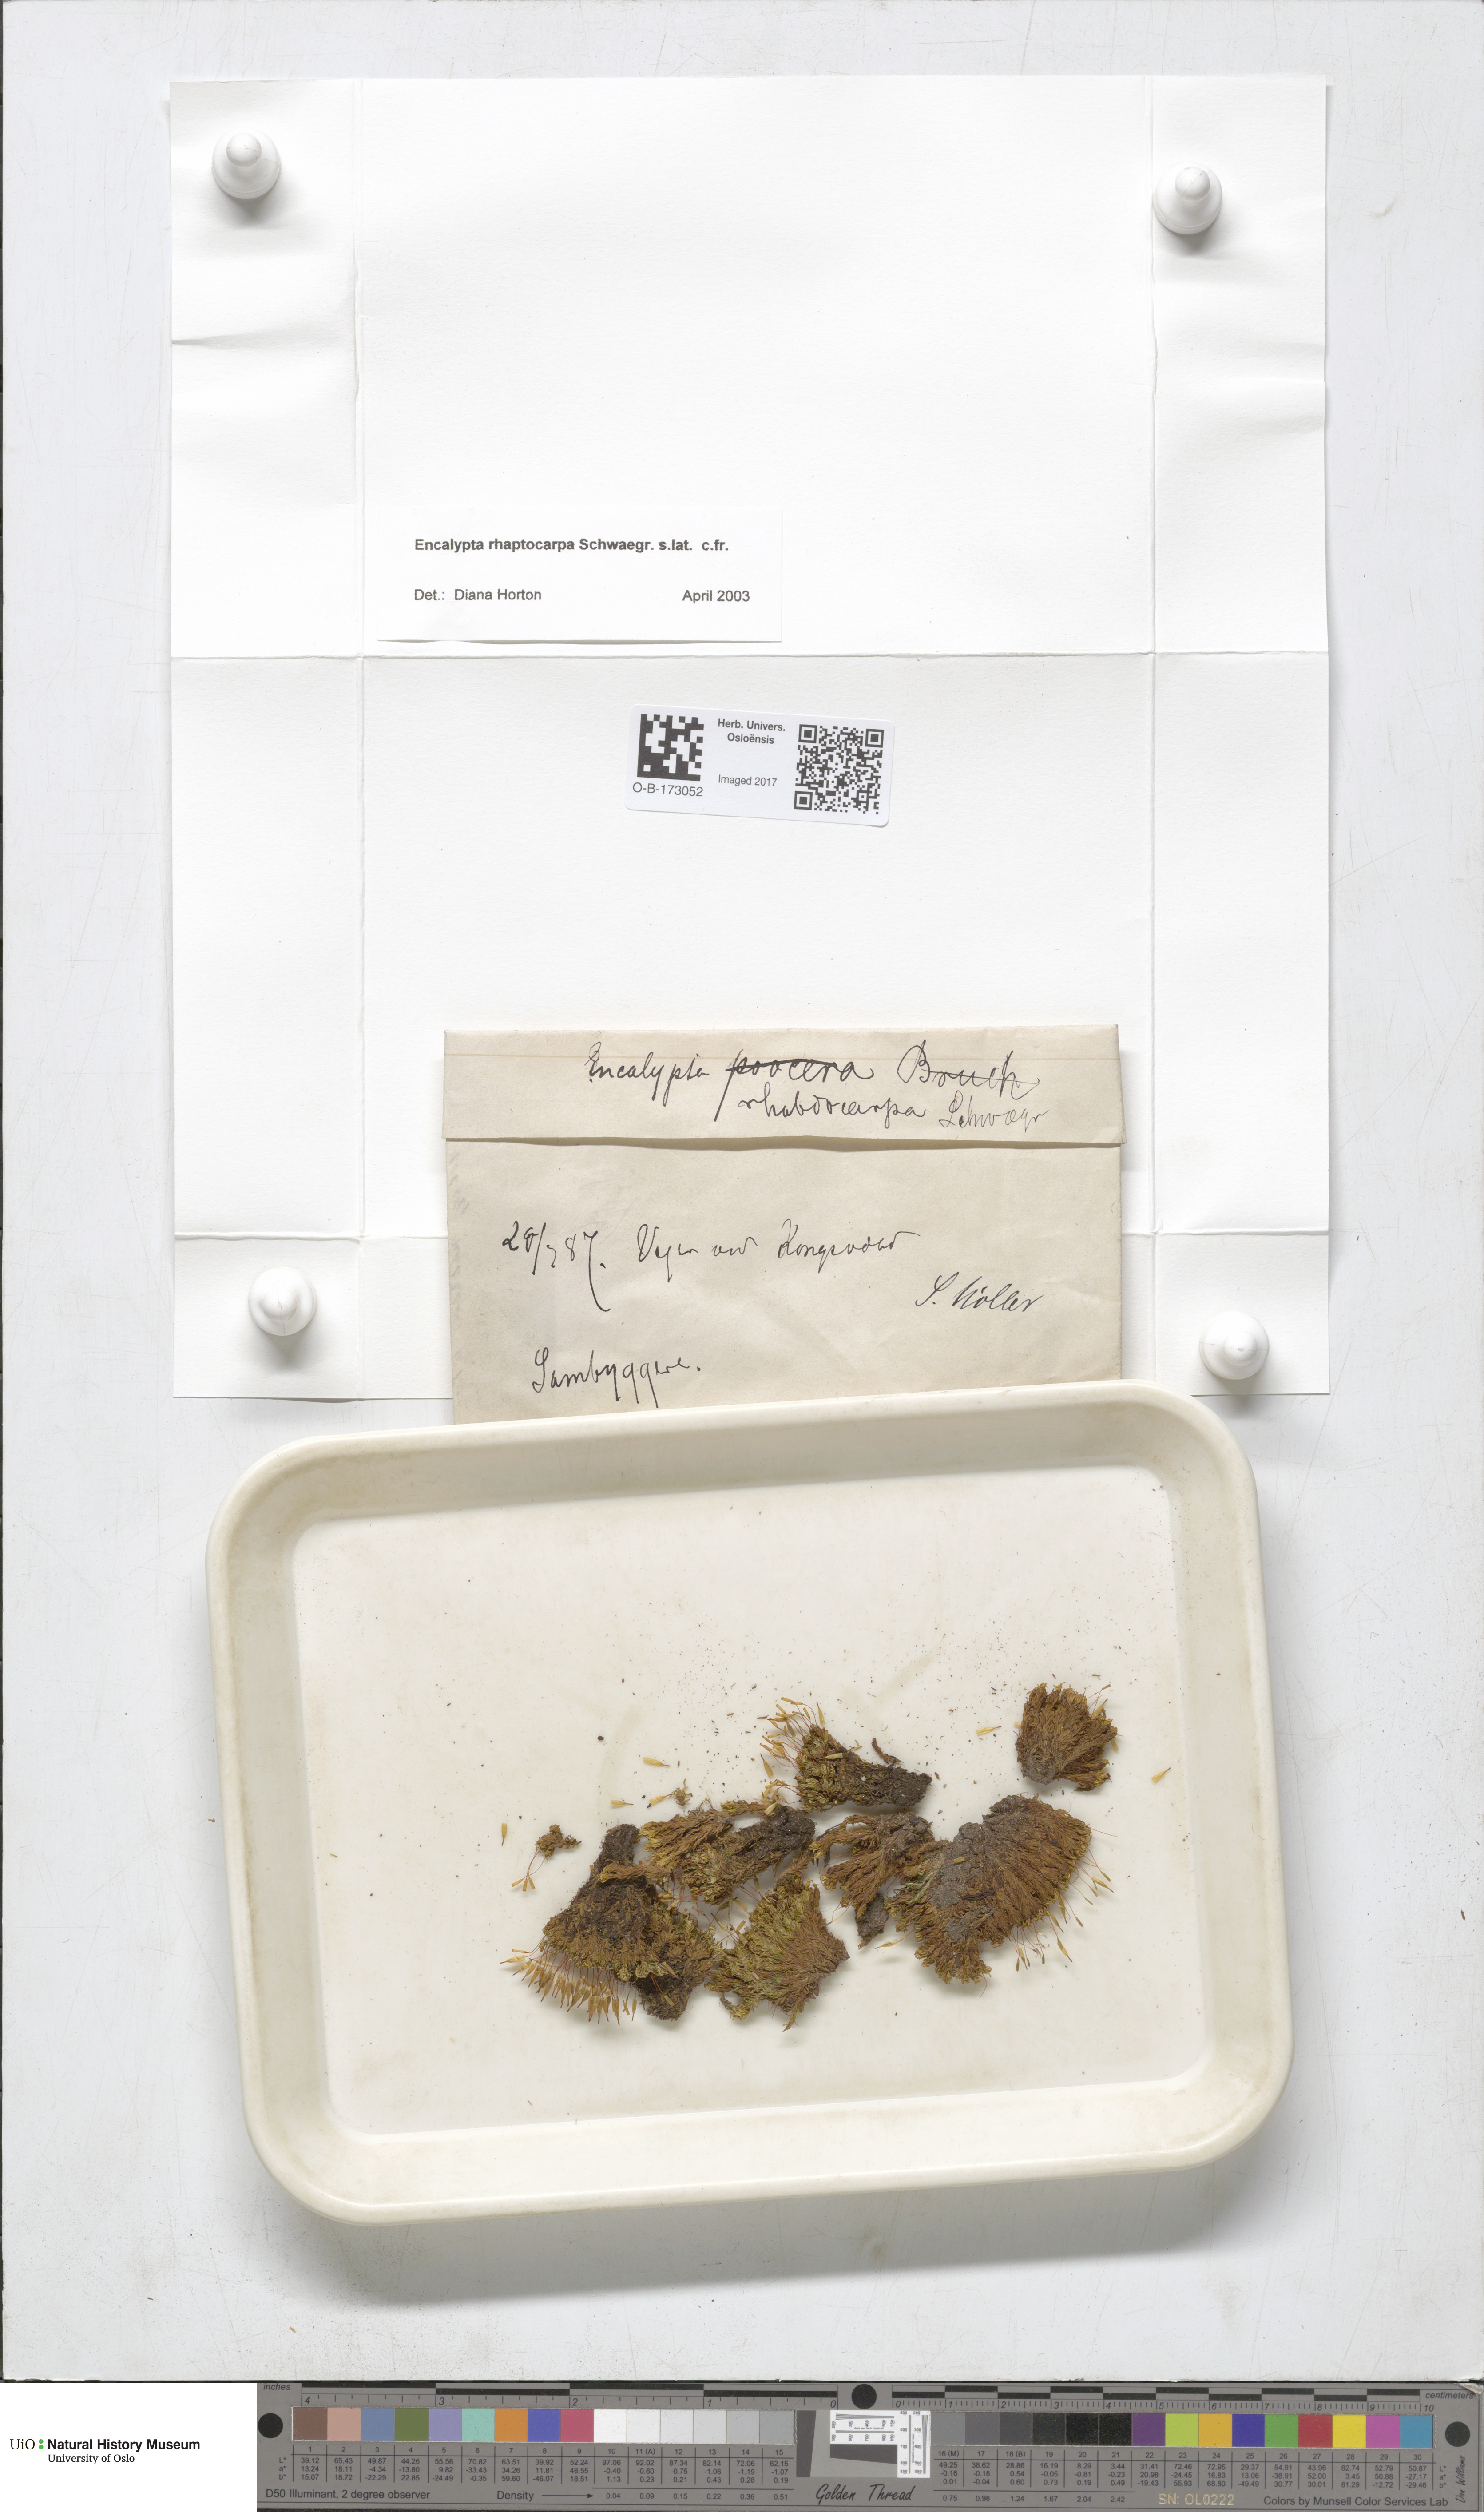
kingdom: Plantae
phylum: Bryophyta
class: Bryopsida
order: Encalyptales
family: Encalyptaceae
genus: Encalypta
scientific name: Encalypta rhaptocarpa
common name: Ribbed extinguisher moss
